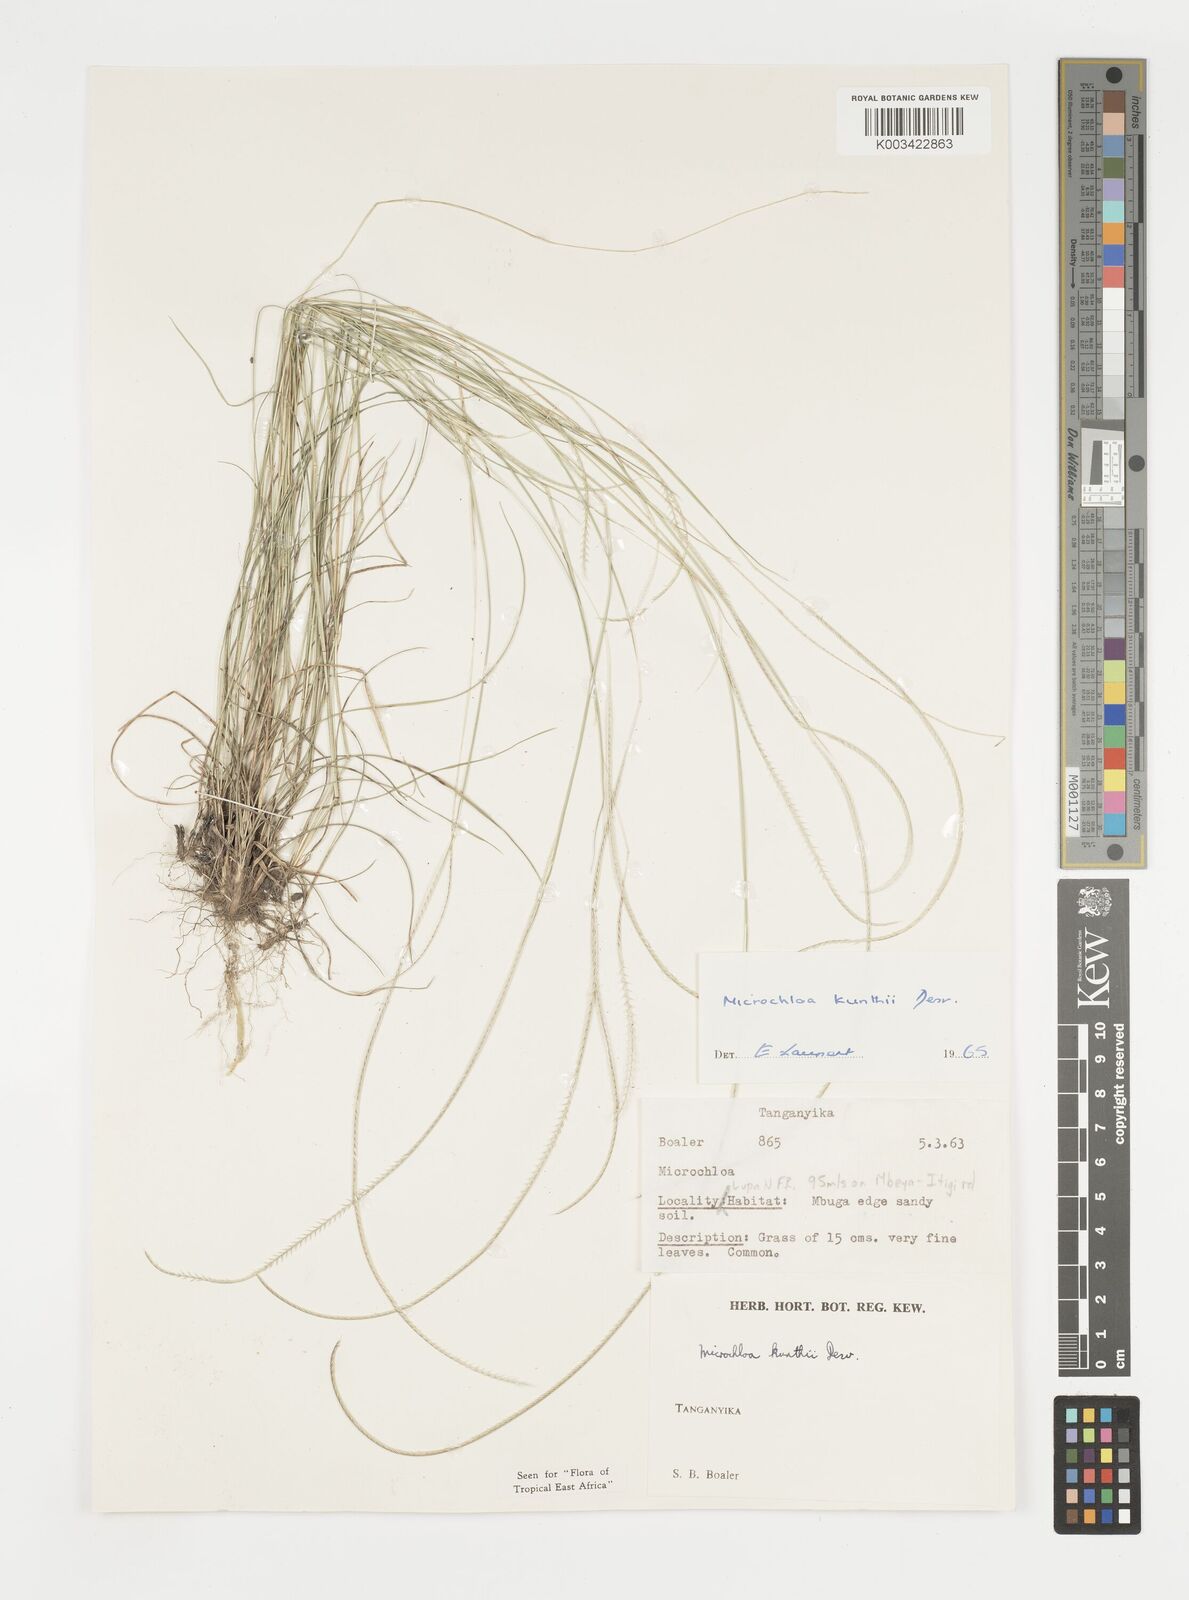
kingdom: Plantae
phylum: Tracheophyta
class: Liliopsida
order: Poales
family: Poaceae
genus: Microchloa
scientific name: Microchloa kunthii
